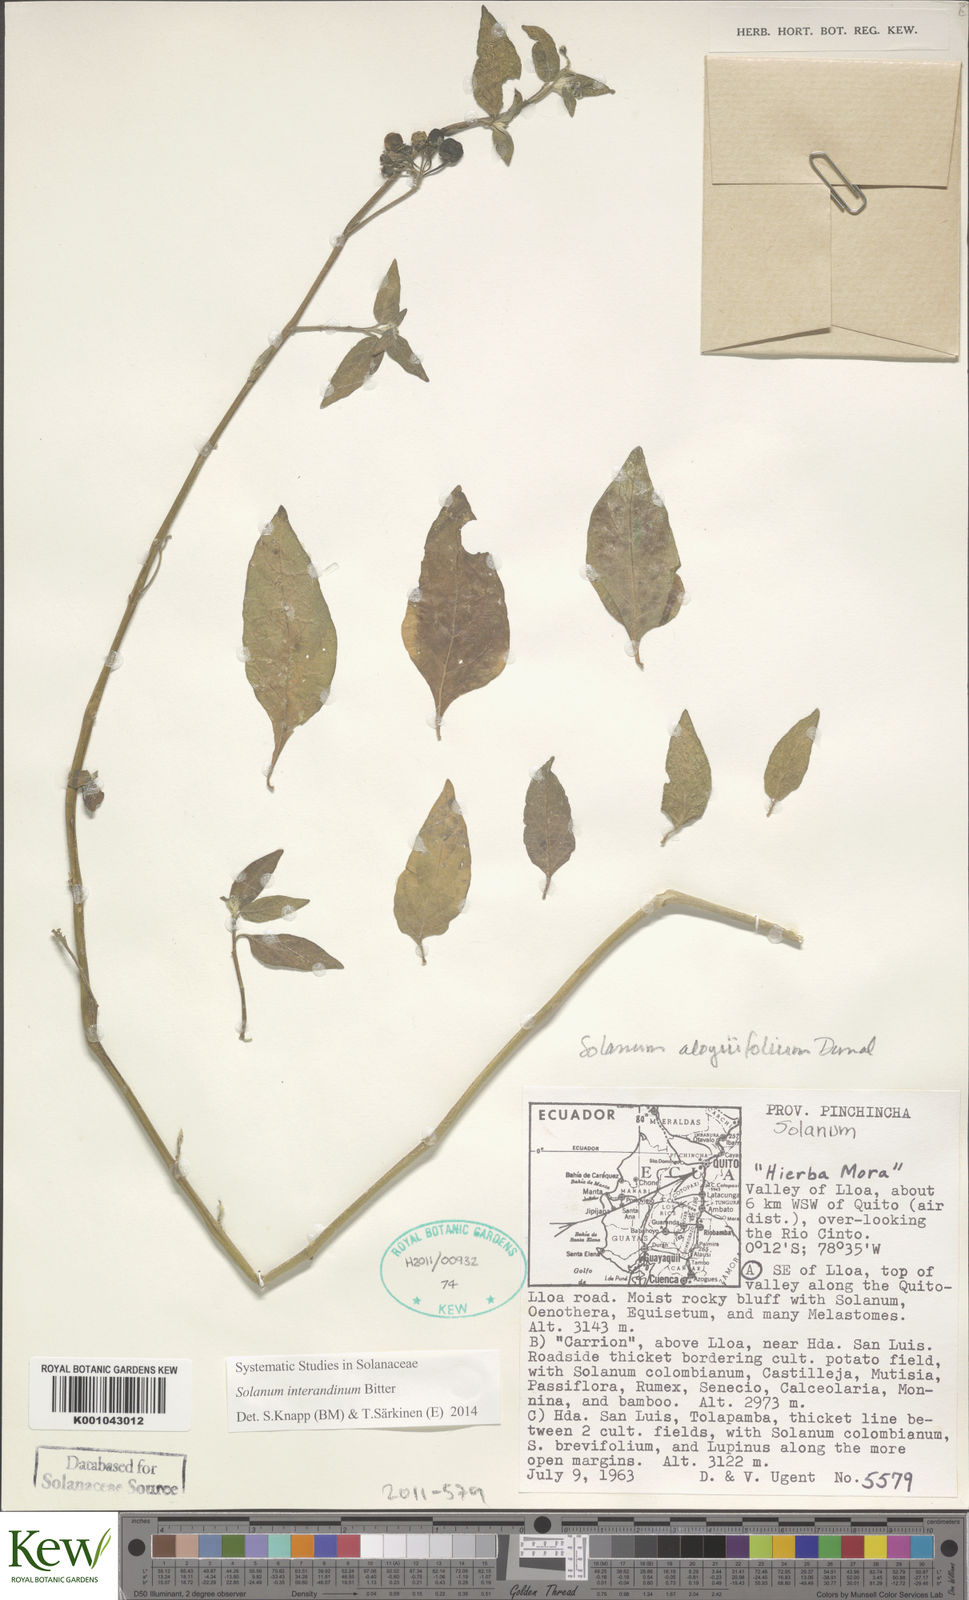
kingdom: Plantae
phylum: Tracheophyta
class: Magnoliopsida
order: Solanales
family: Solanaceae
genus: Solanum
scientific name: Solanum aloysiifolium
